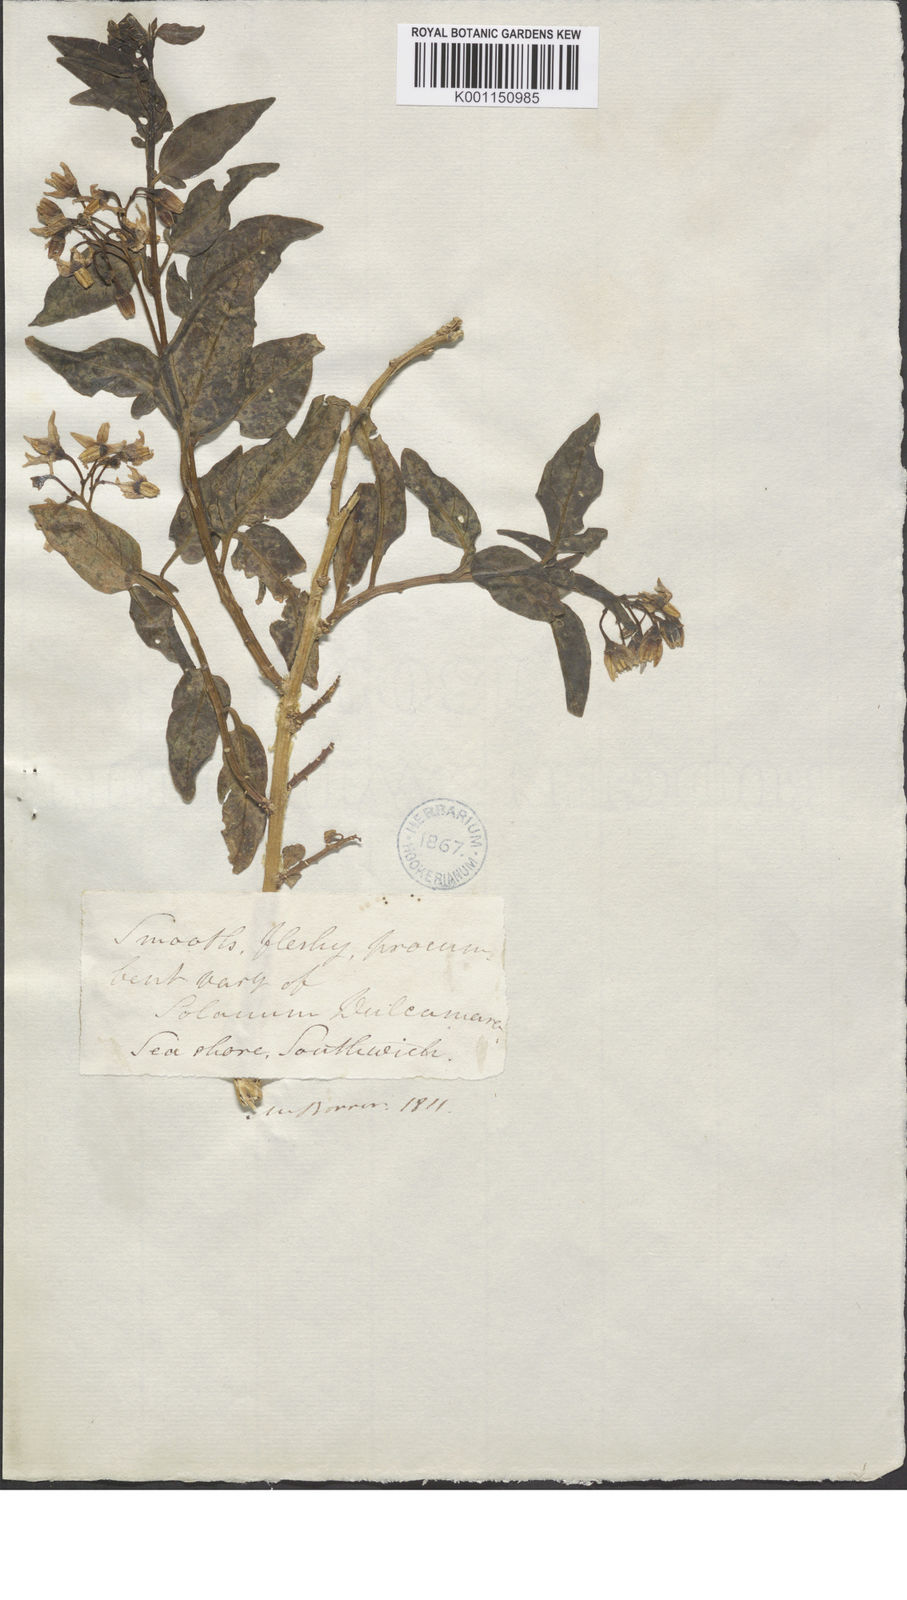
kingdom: Plantae
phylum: Tracheophyta
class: Magnoliopsida
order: Solanales
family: Solanaceae
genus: Solanum
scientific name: Solanum dulcamara
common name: Climbing nightshade
